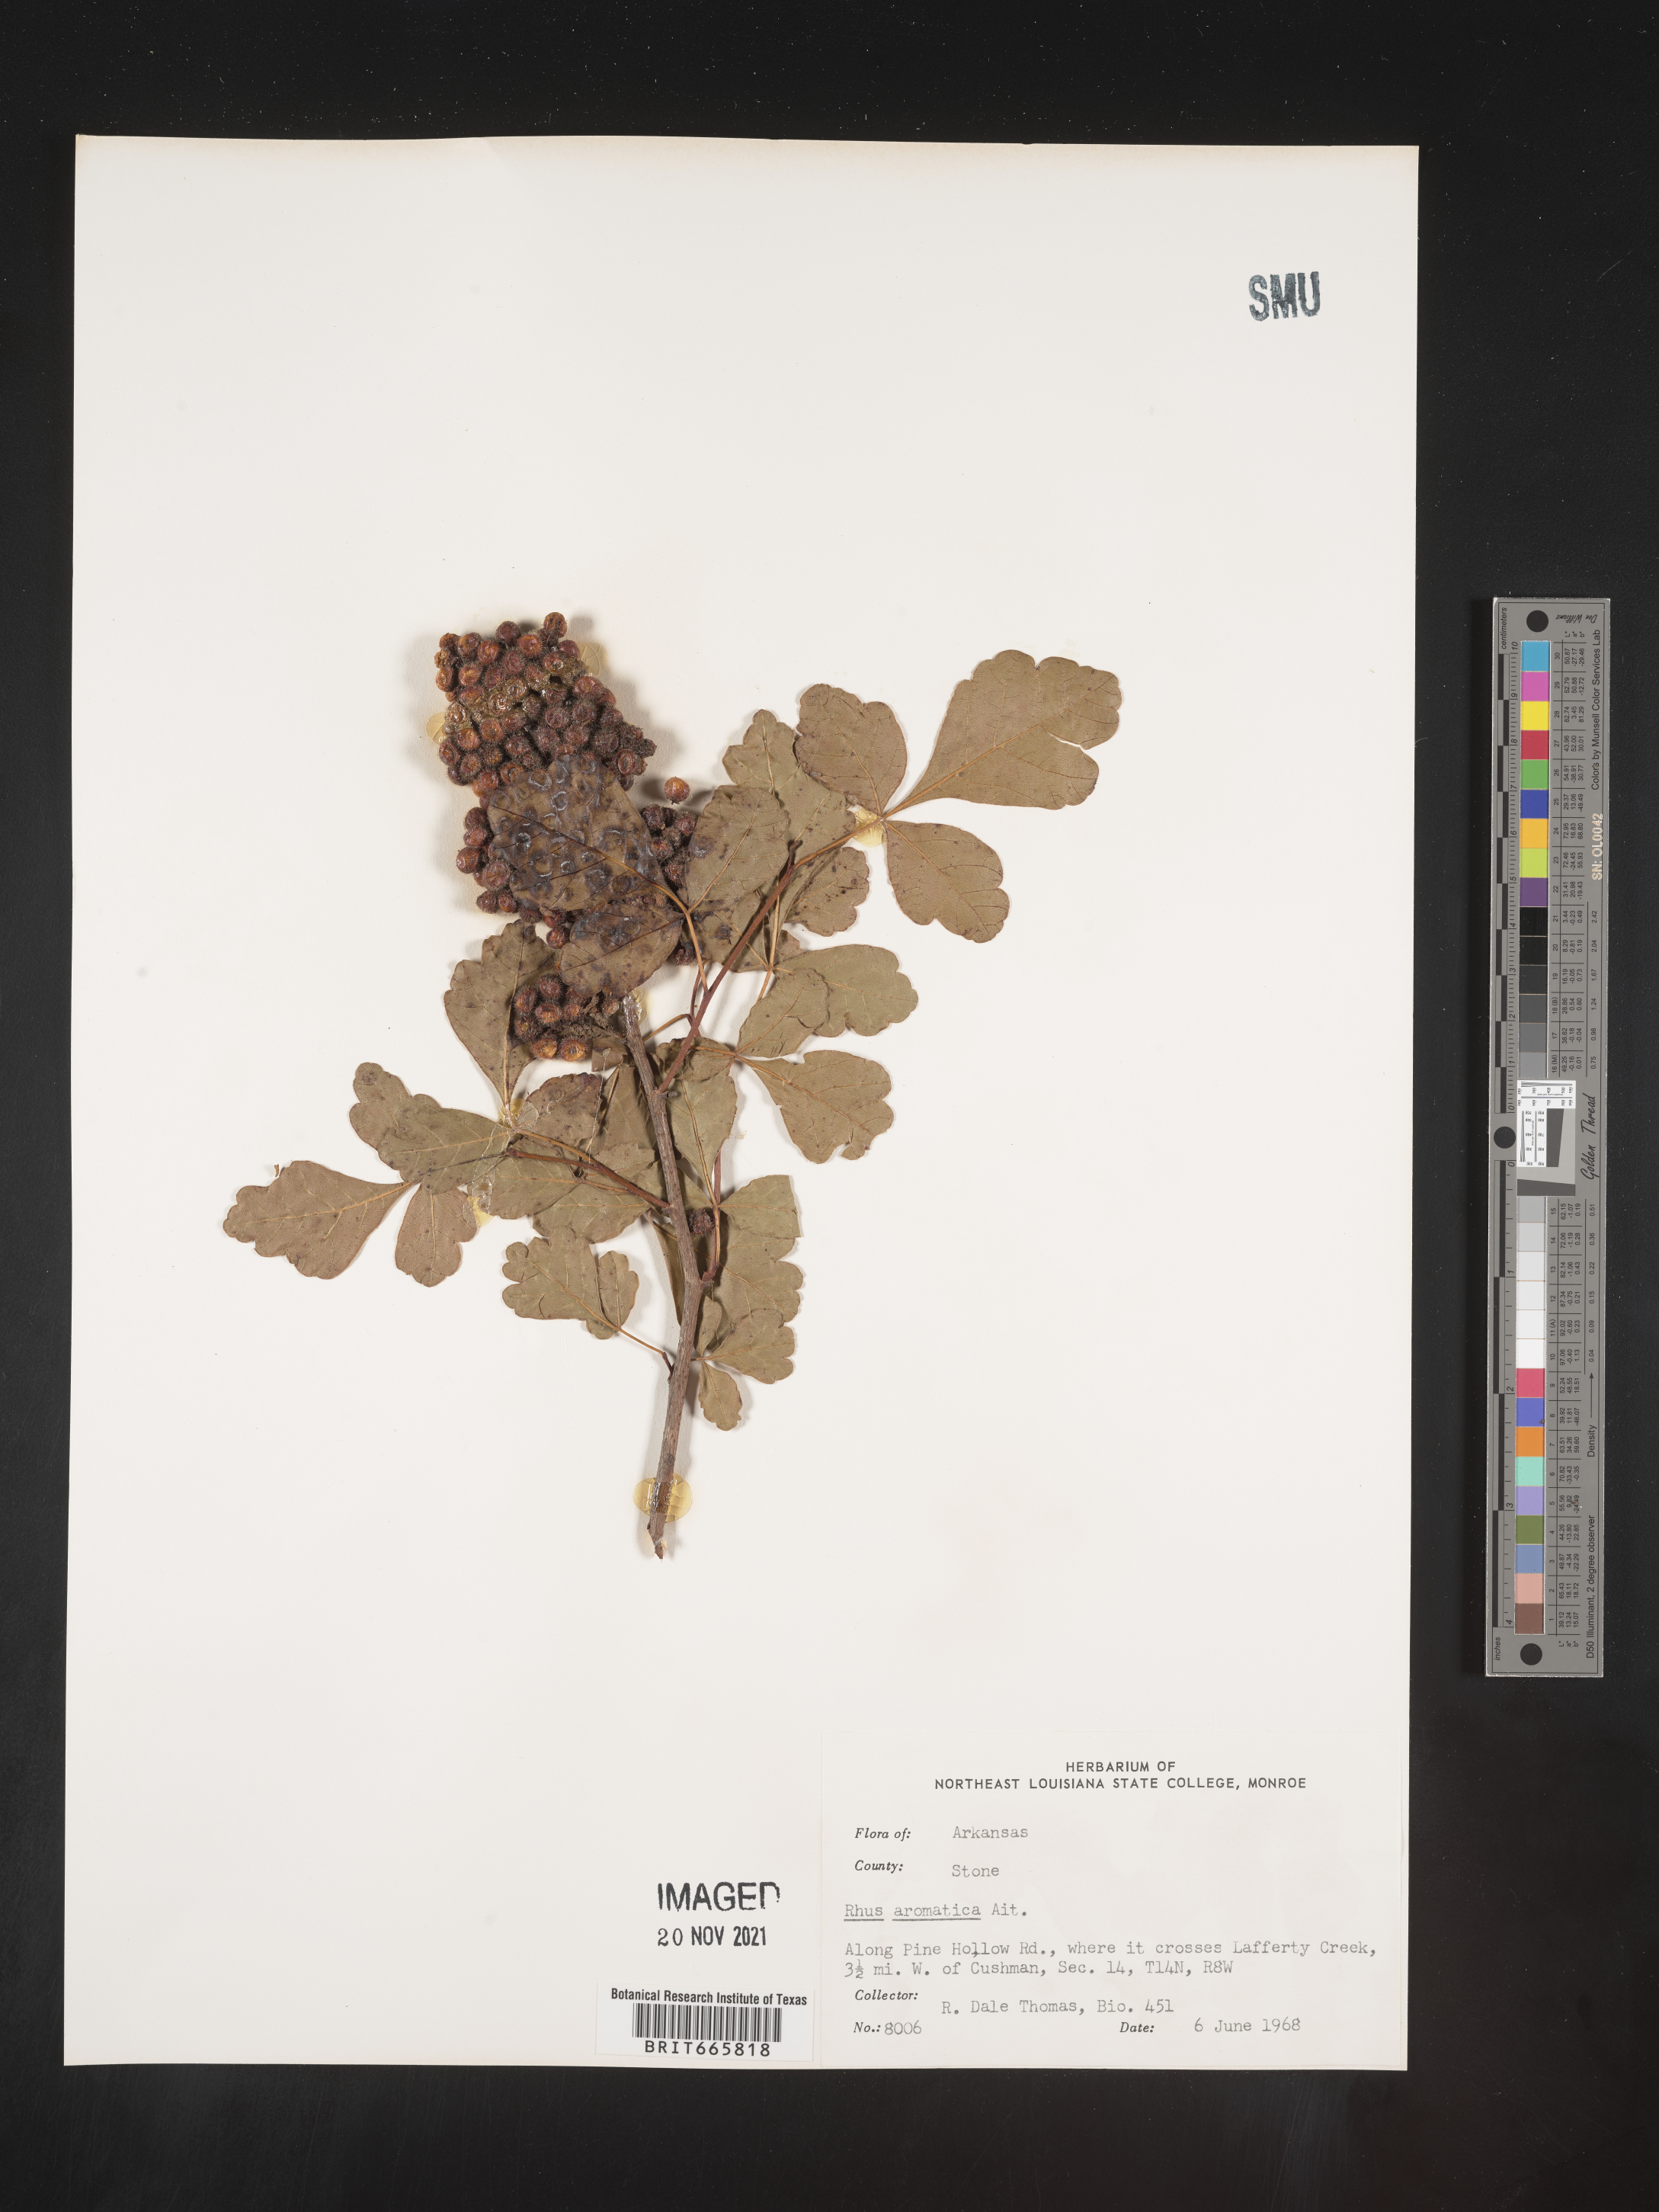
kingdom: Plantae
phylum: Tracheophyta
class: Magnoliopsida
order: Sapindales
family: Anacardiaceae
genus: Rhus
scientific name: Rhus aromatica
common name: Aromatic sumac
